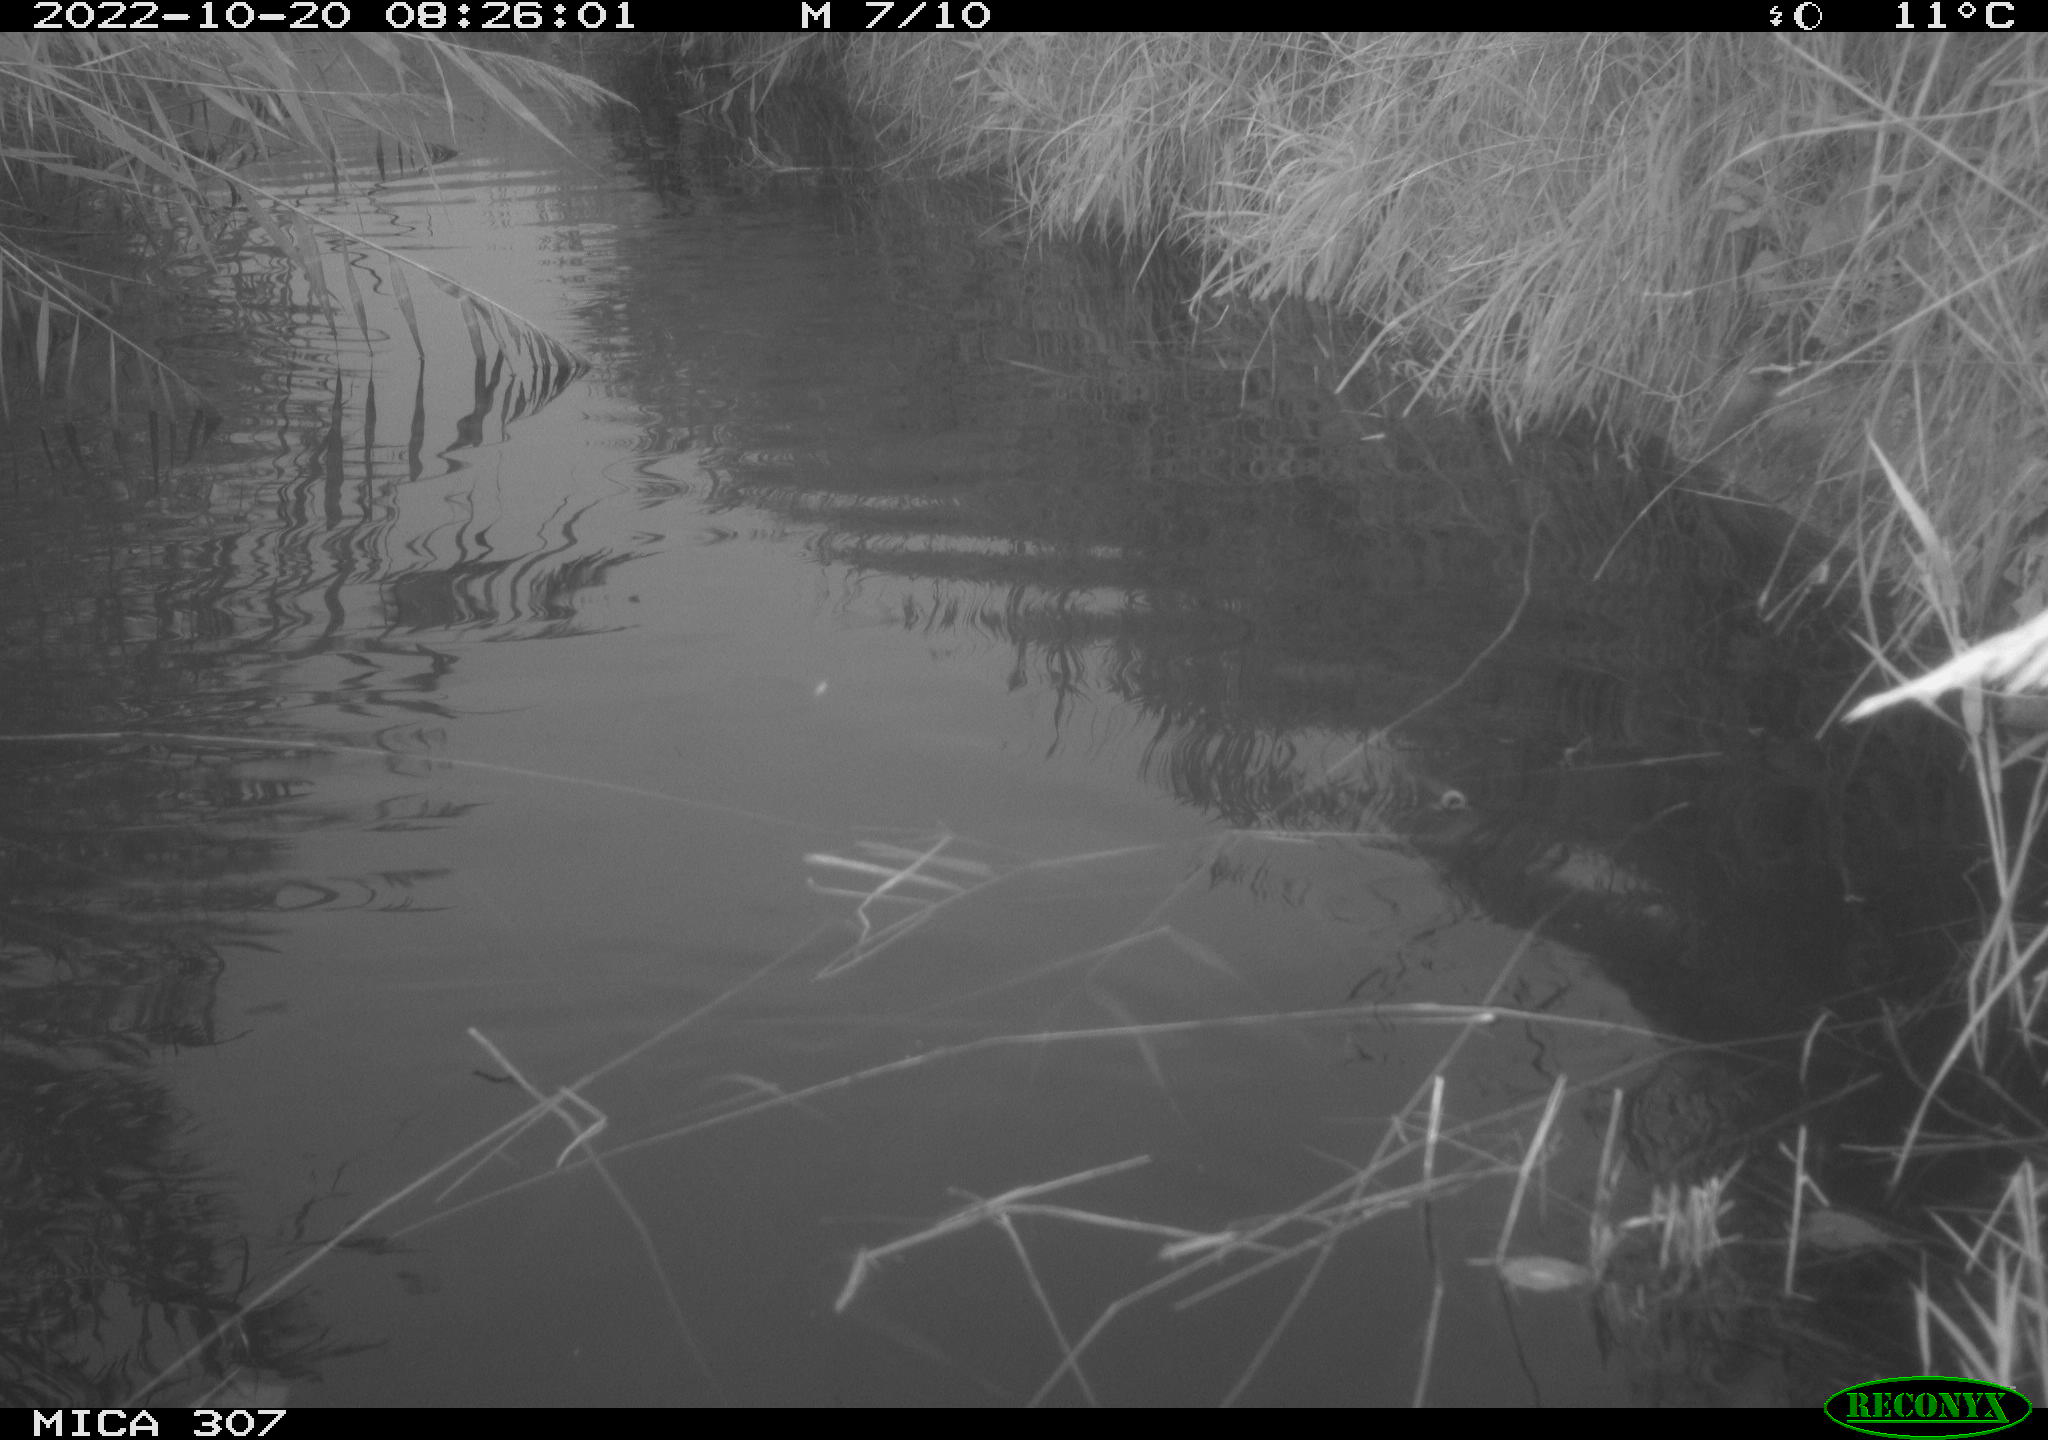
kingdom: Animalia
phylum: Chordata
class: Aves
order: Anseriformes
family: Anatidae
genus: Anas
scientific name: Anas
